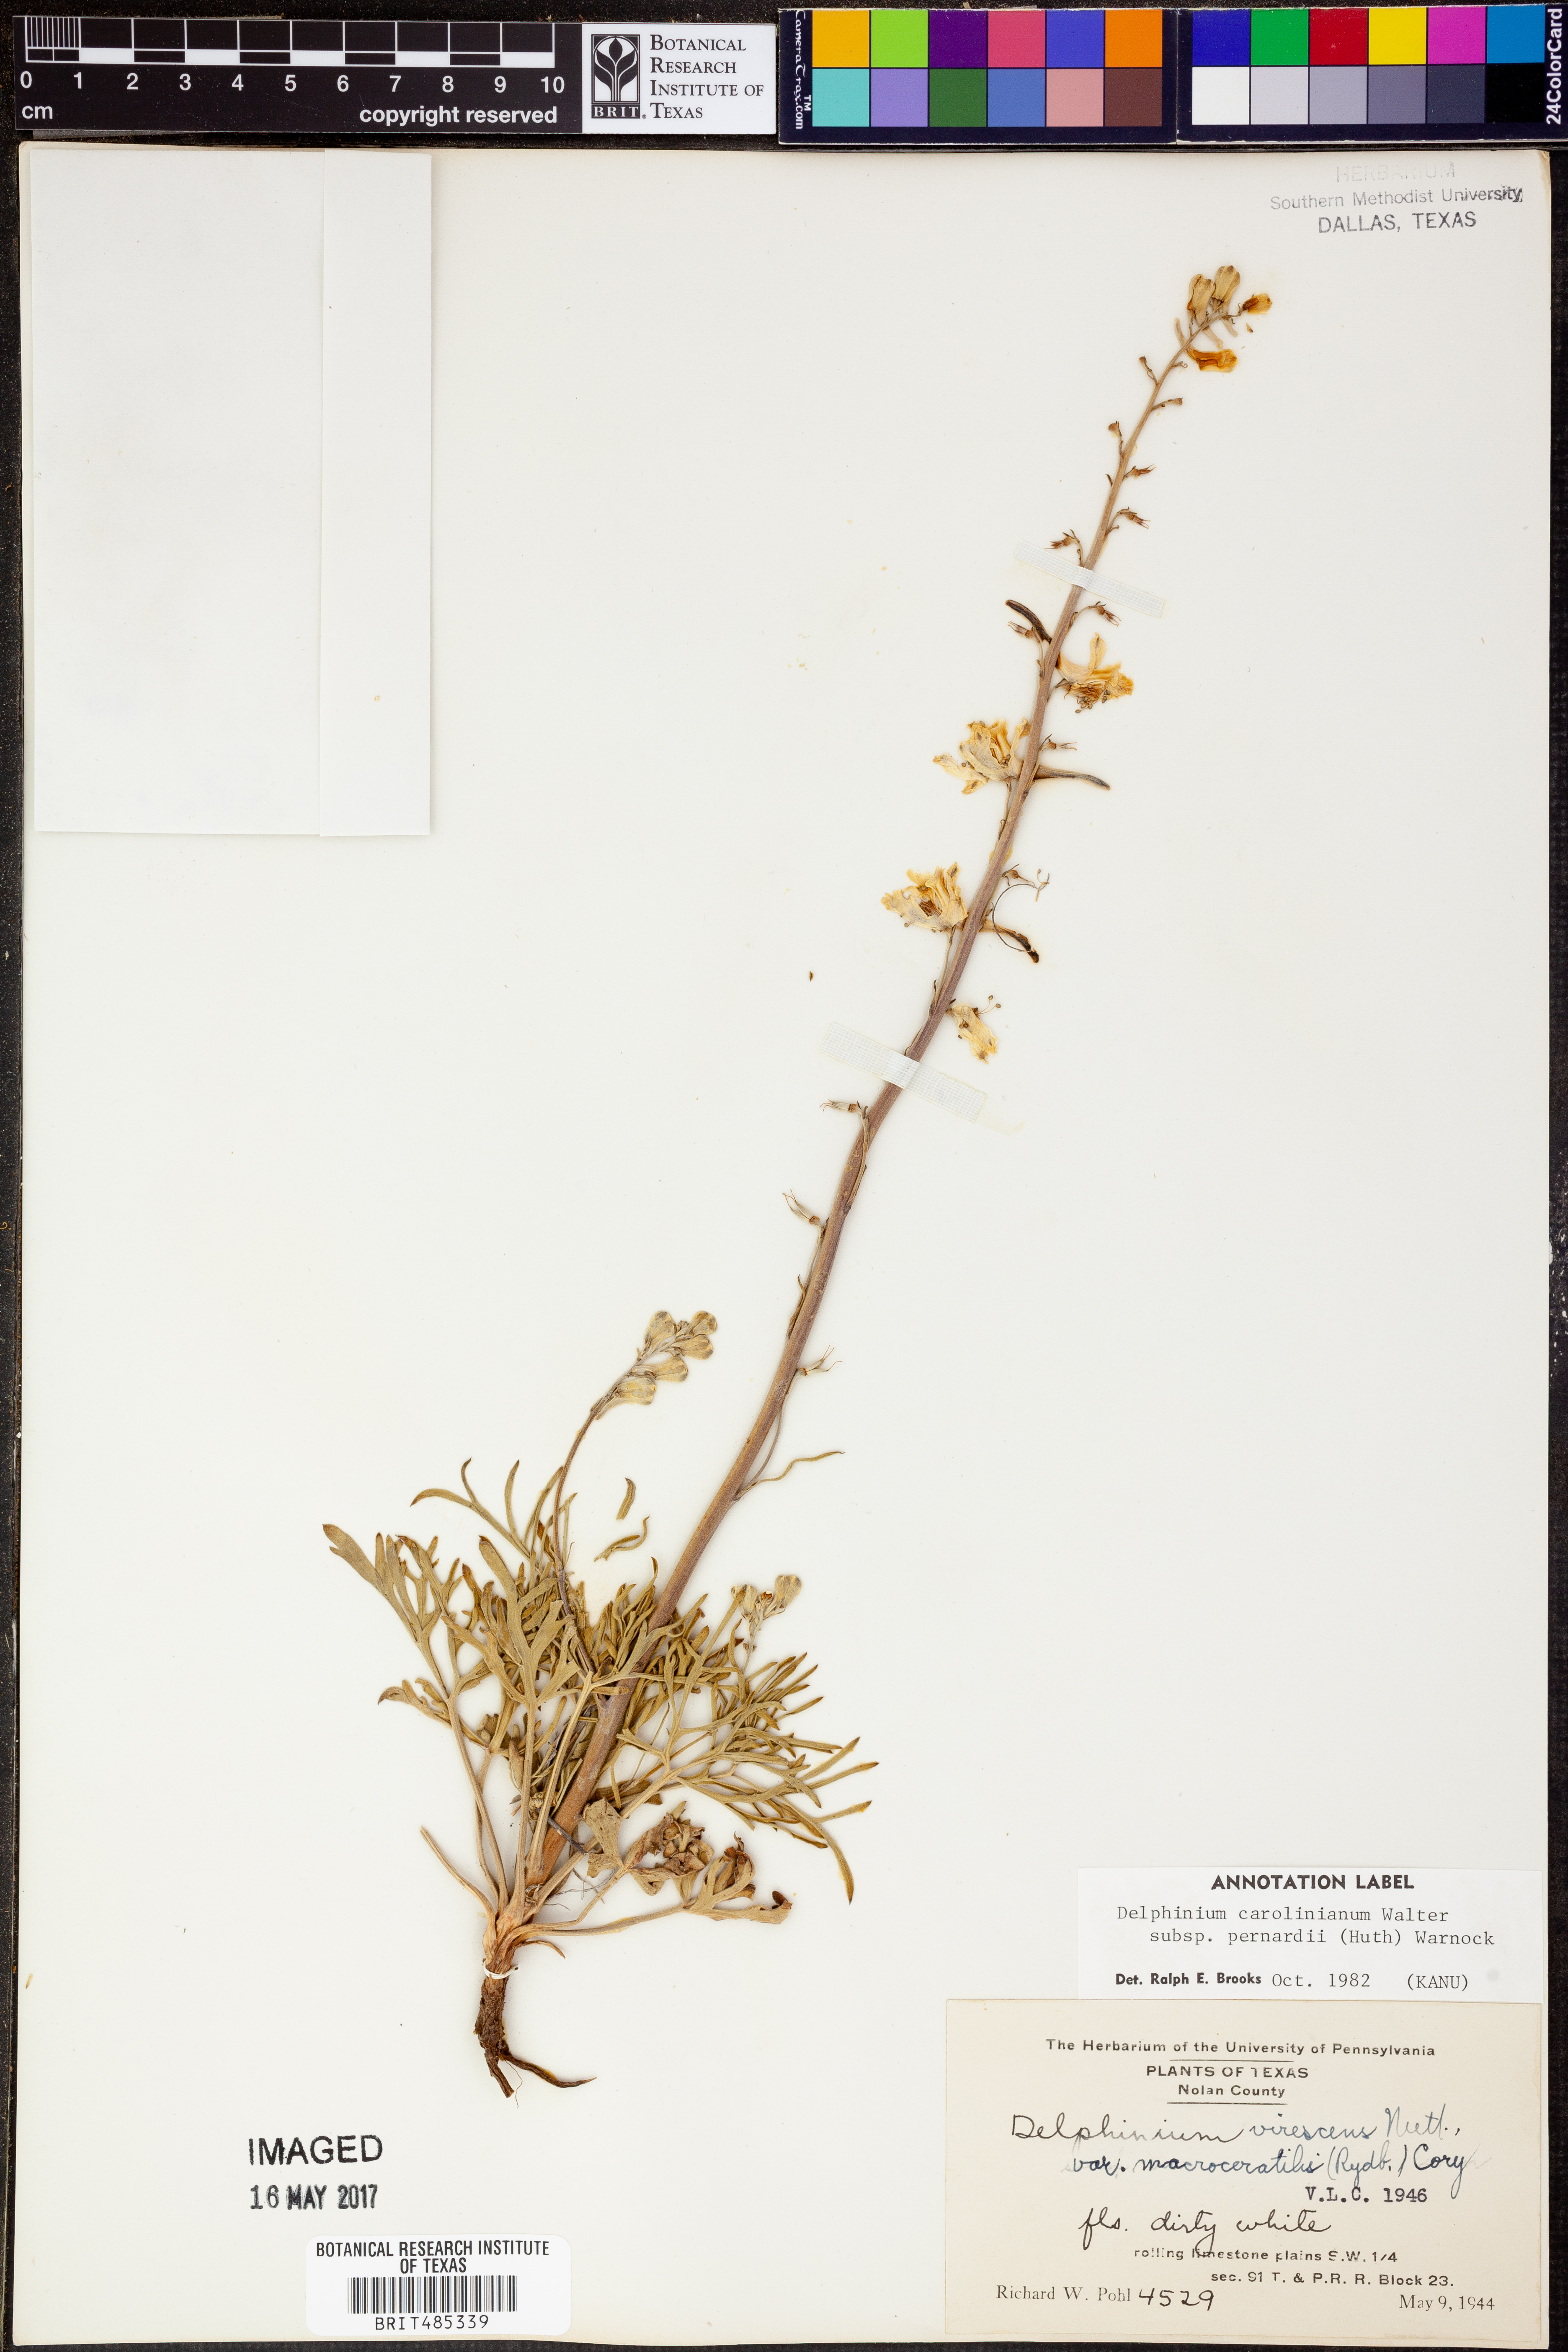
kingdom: Plantae
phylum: Tracheophyta
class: Magnoliopsida
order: Ranunculales
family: Ranunculaceae
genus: Delphinium
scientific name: Delphinium carolinianum
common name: Carolina larkspur
